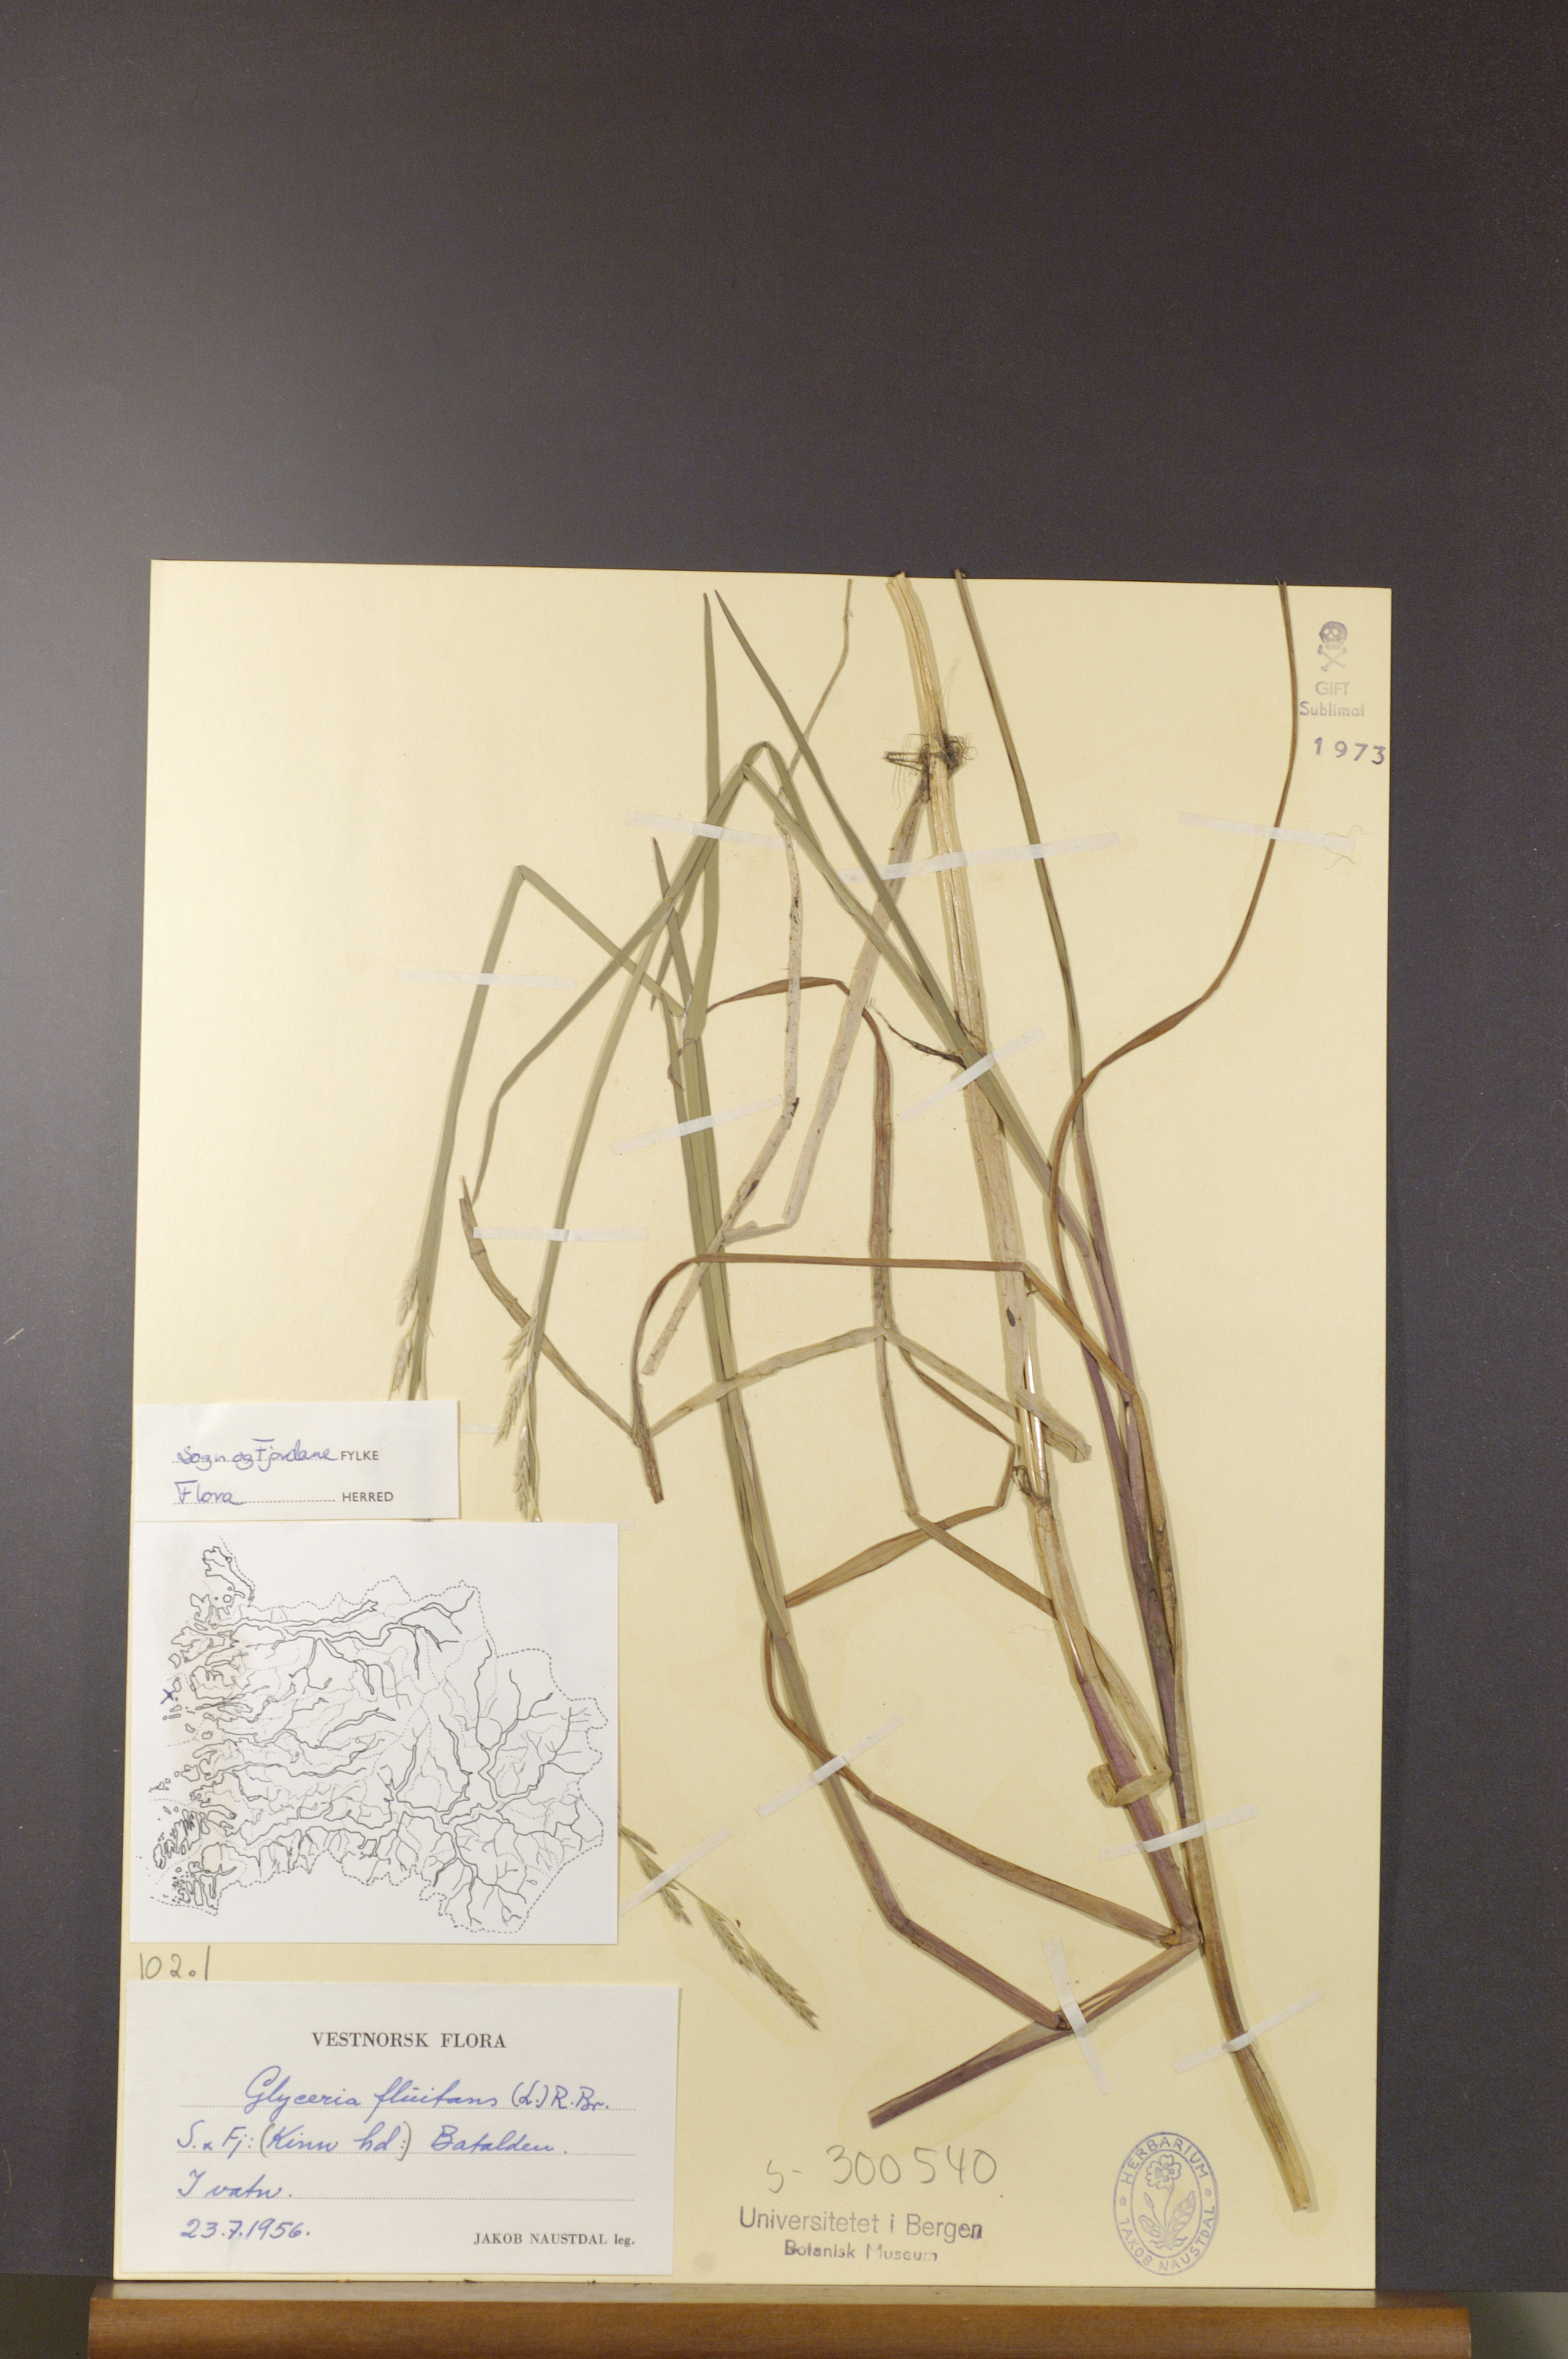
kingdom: Plantae
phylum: Tracheophyta
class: Liliopsida
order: Poales
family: Poaceae
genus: Glyceria
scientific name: Glyceria fluitans
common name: Floating sweet-grass
